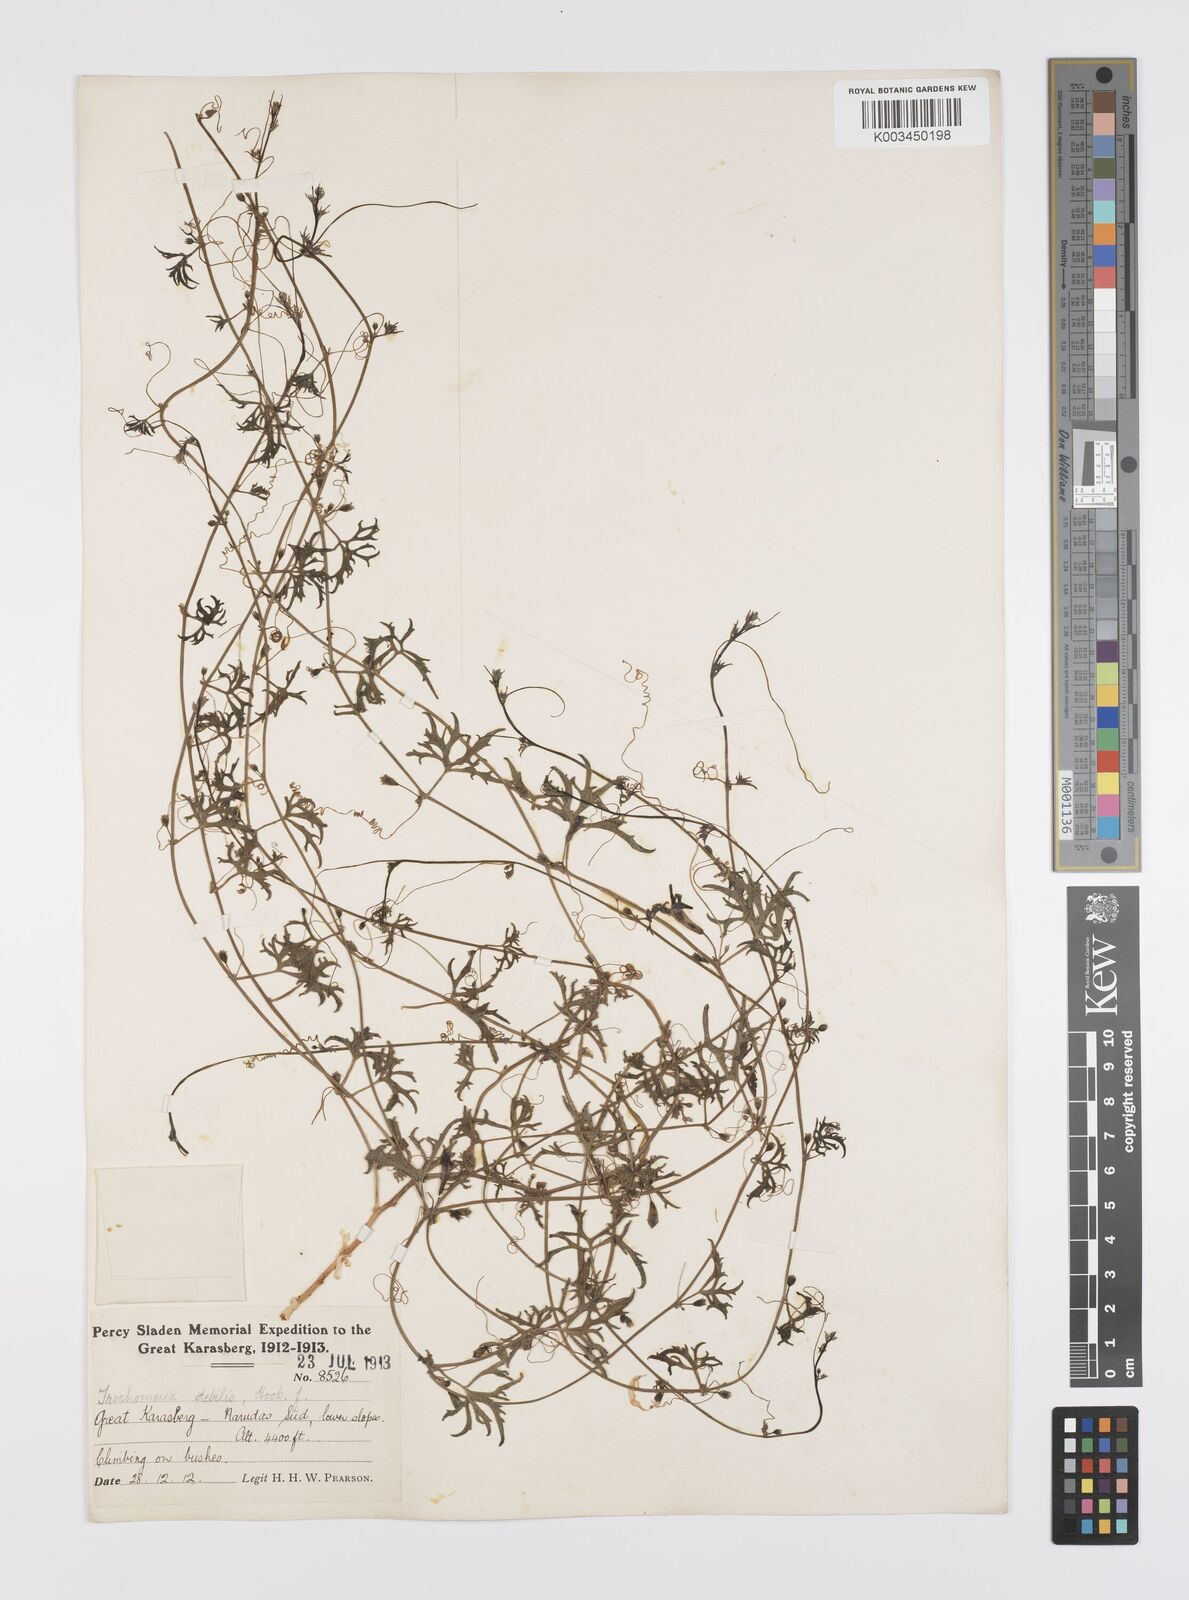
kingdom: Plantae
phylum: Tracheophyta
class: Magnoliopsida
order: Cucurbitales
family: Cucurbitaceae
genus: Trochomeria
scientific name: Trochomeria debilis
